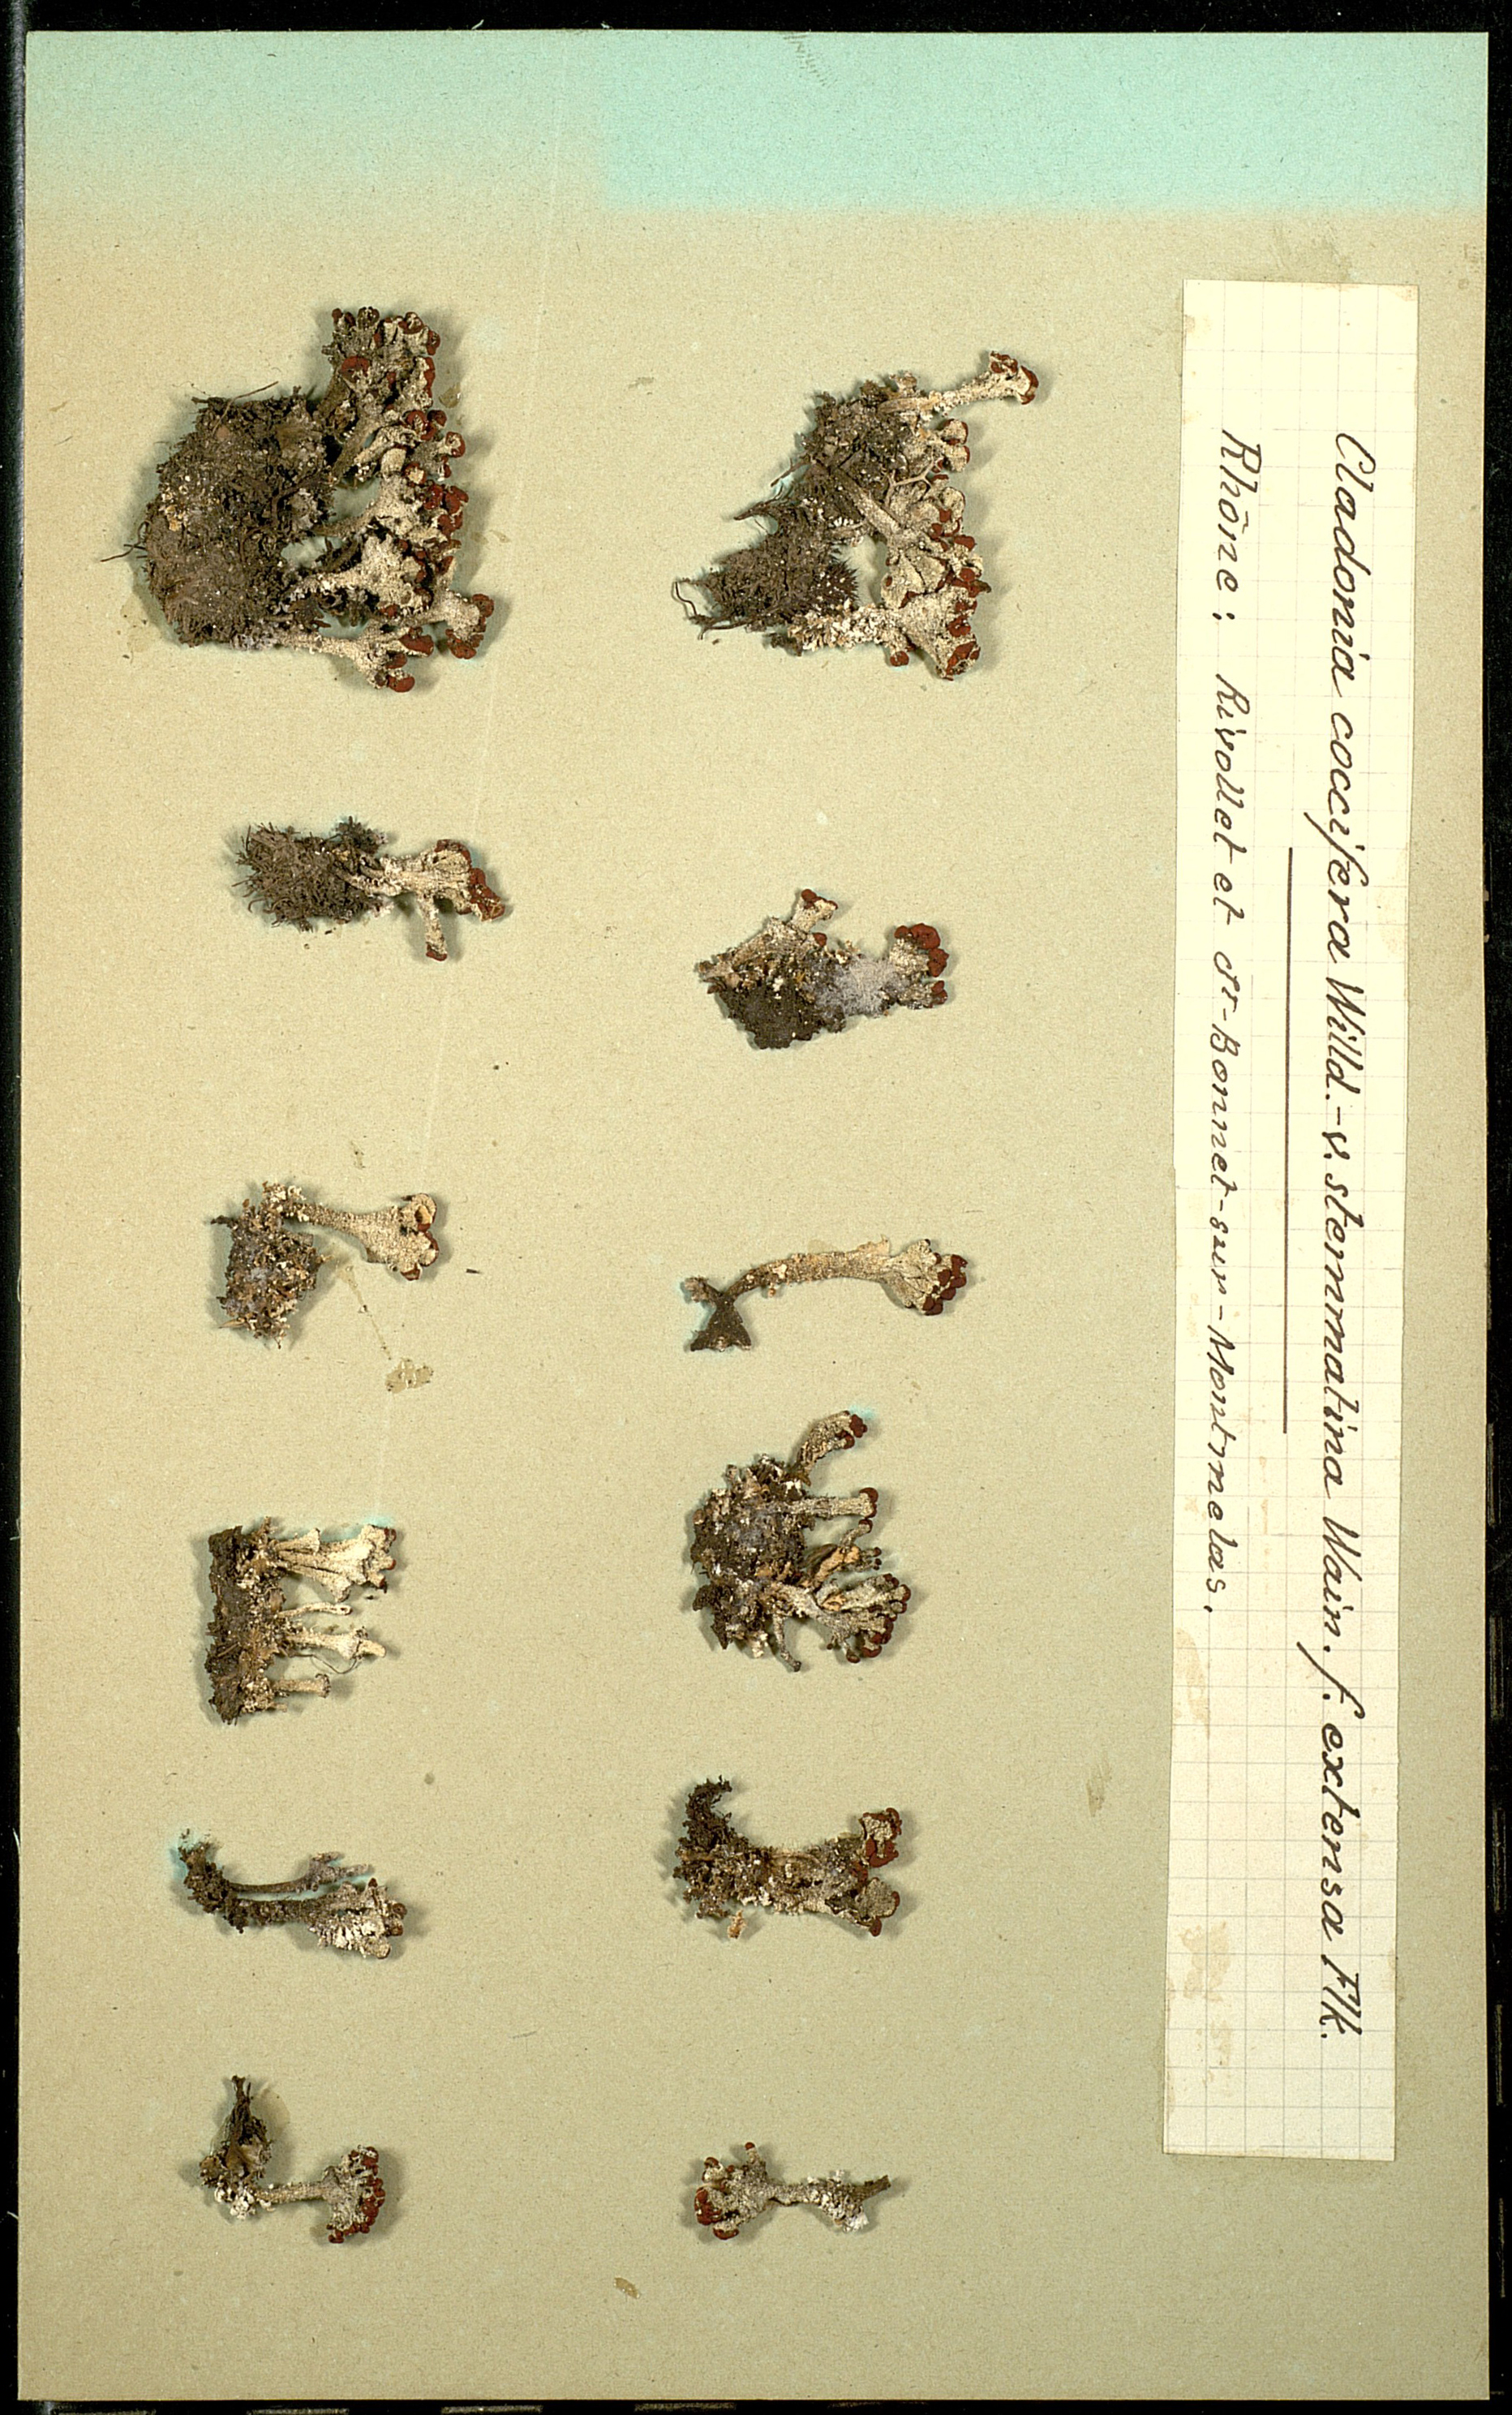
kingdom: Fungi
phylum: Ascomycota
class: Lecanoromycetes
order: Lecanorales
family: Cladoniaceae
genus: Cladonia
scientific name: Cladonia coccifera
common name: Scarlet-cup lichen
